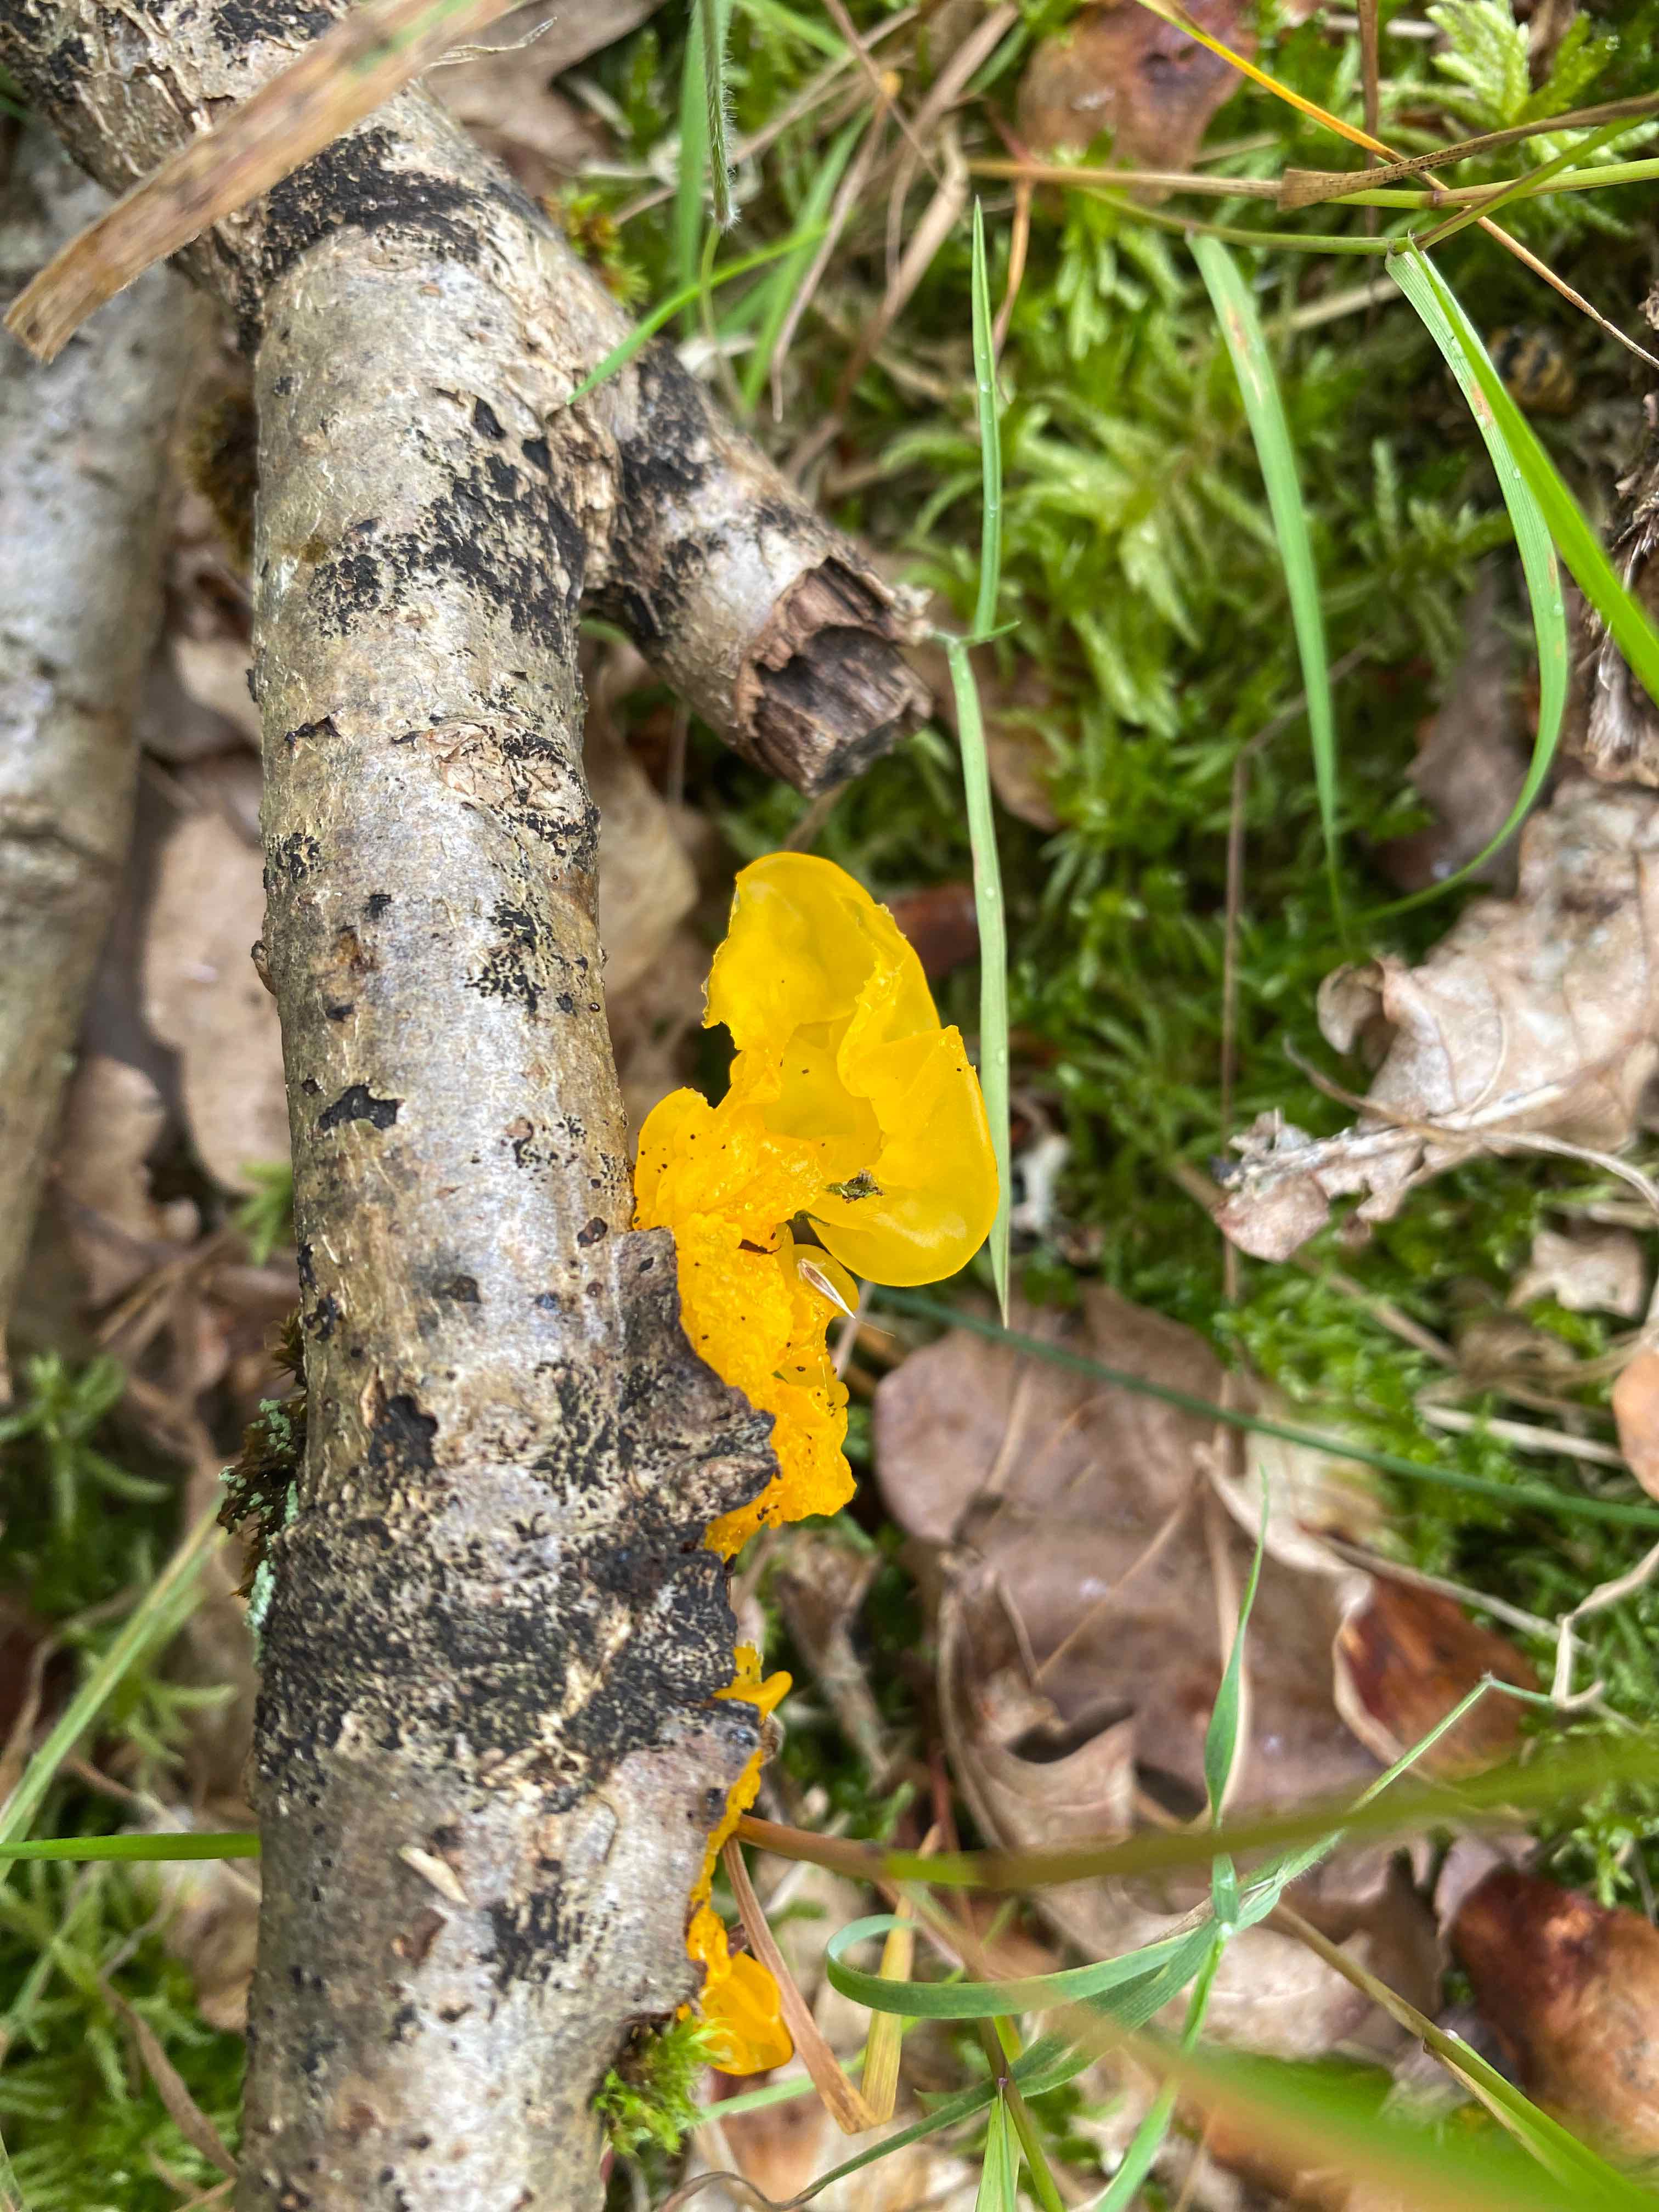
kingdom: Fungi
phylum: Basidiomycota
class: Tremellomycetes
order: Tremellales
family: Tremellaceae
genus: Tremella
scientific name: Tremella mesenterica
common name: gul bævresvamp
